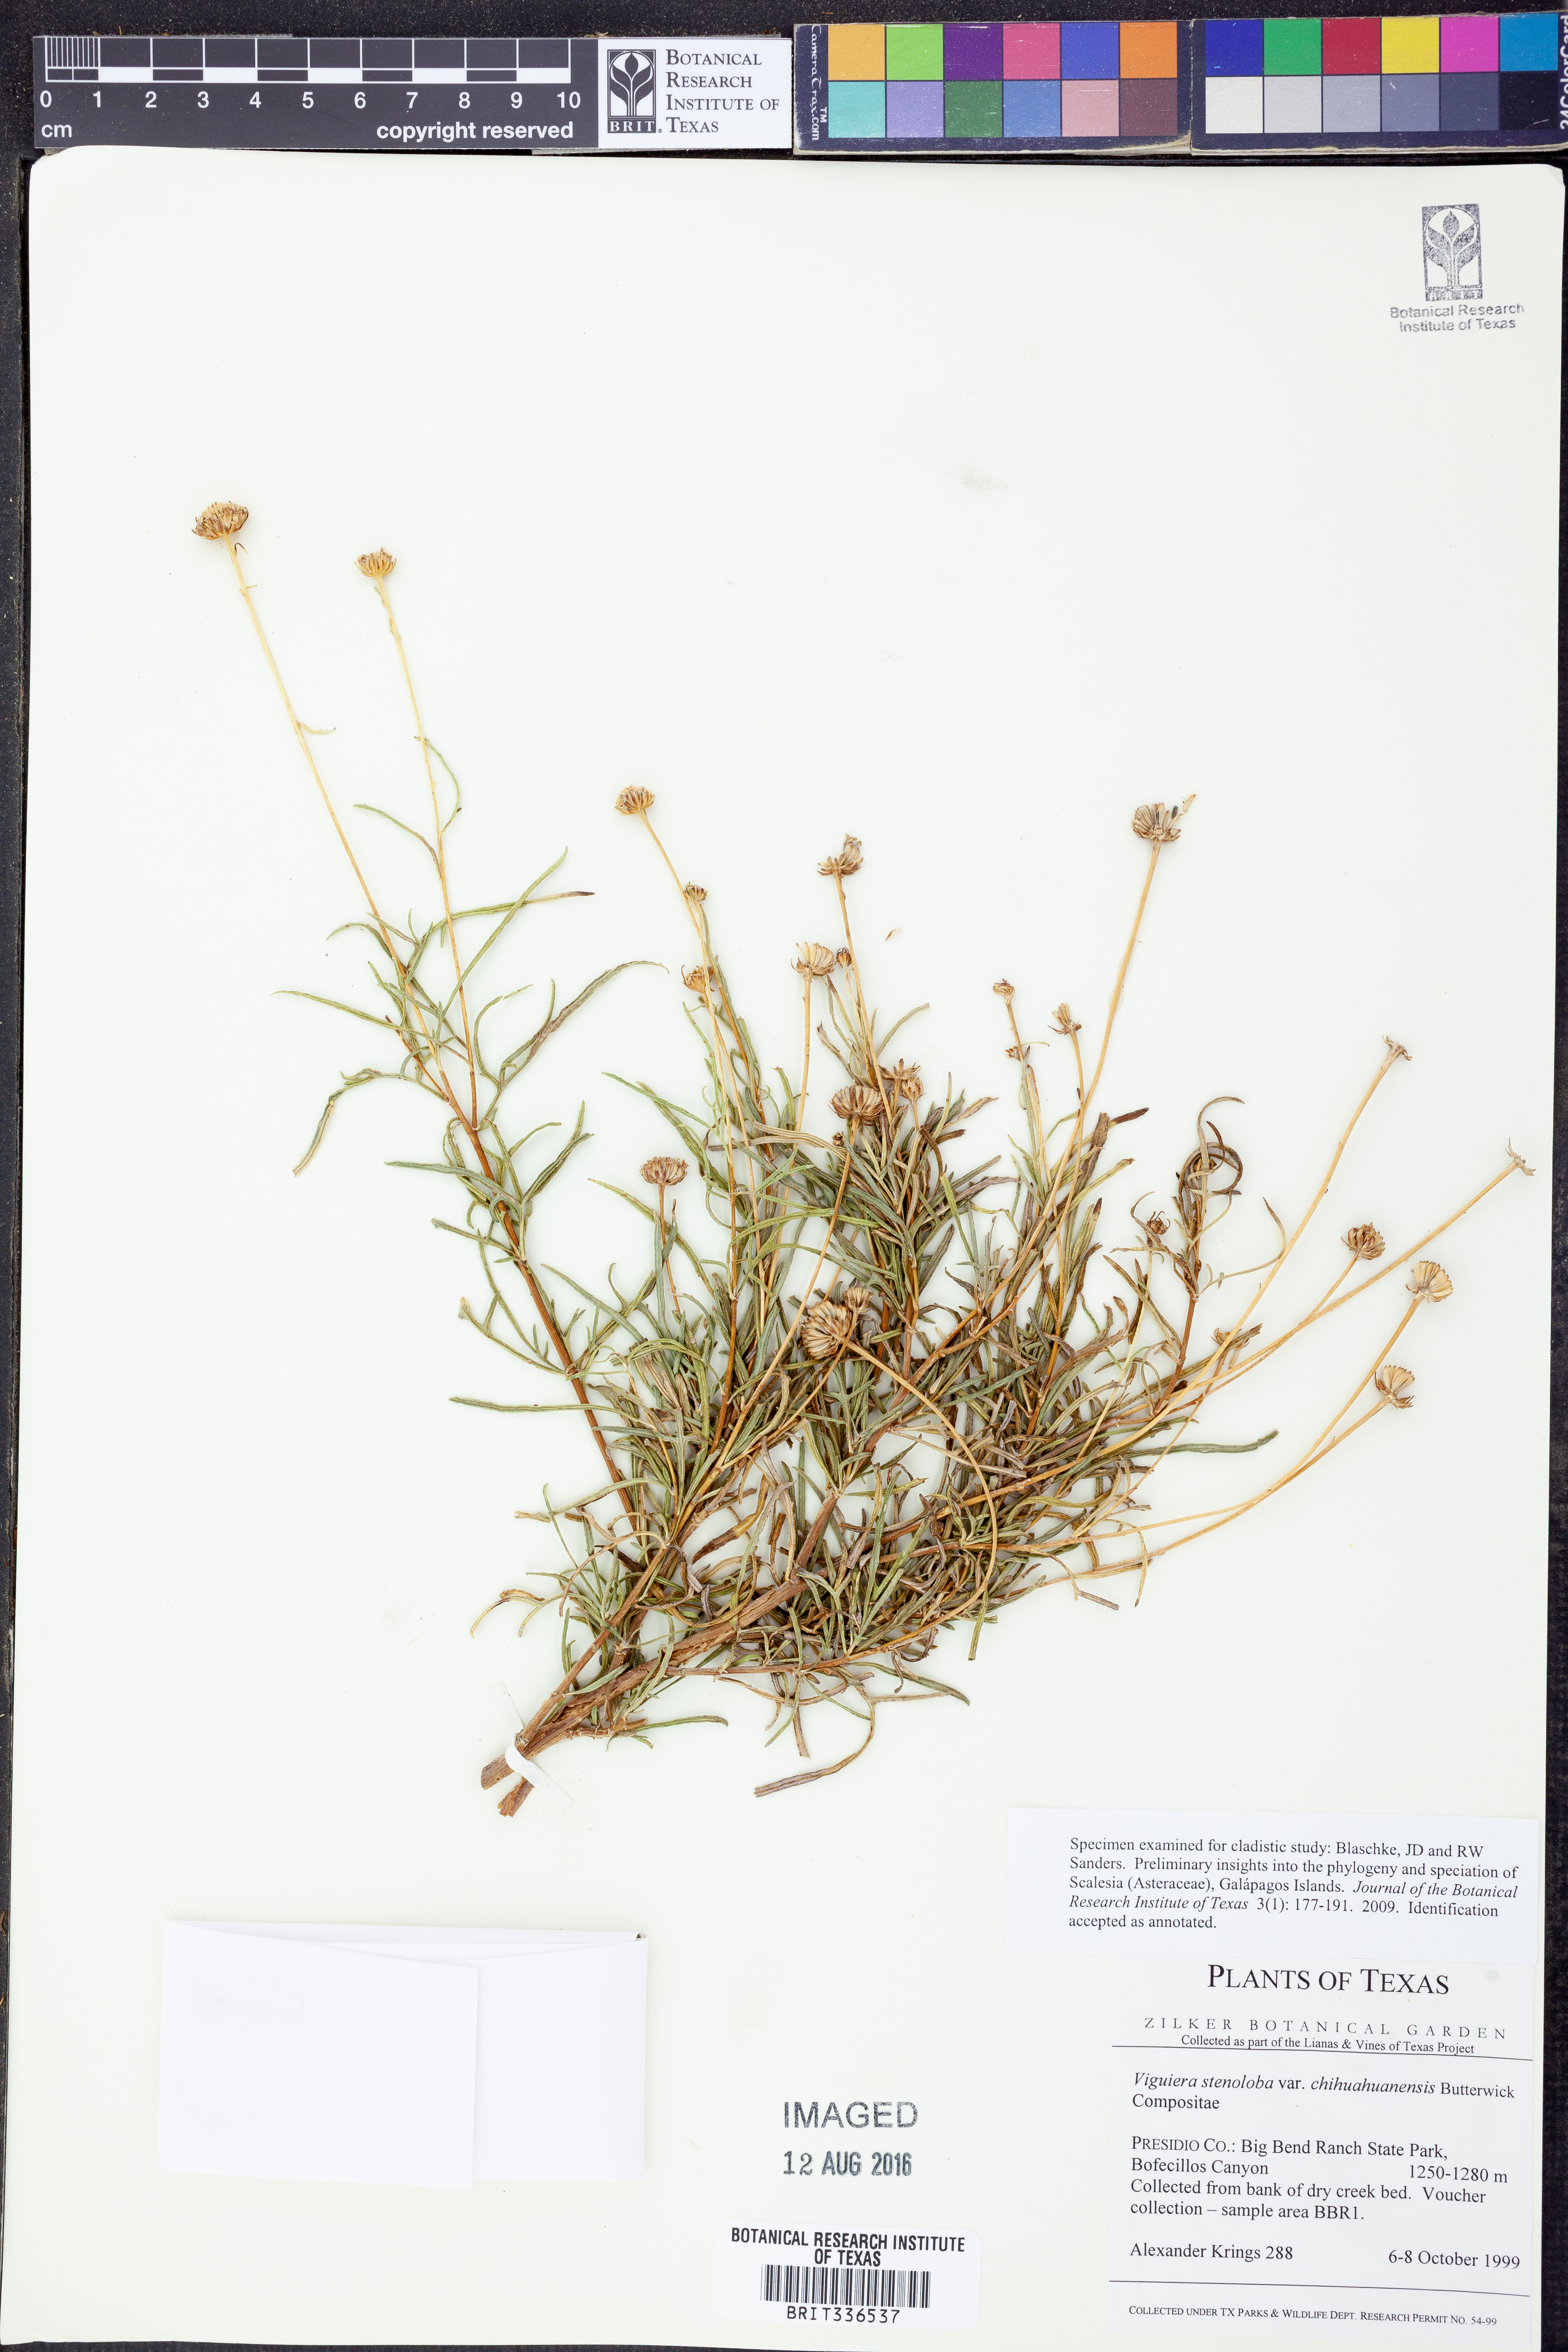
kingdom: Plantae
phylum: Tracheophyta
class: Magnoliopsida
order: Asterales
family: Asteraceae
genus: Sidneya
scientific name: Sidneya tenuifolia
